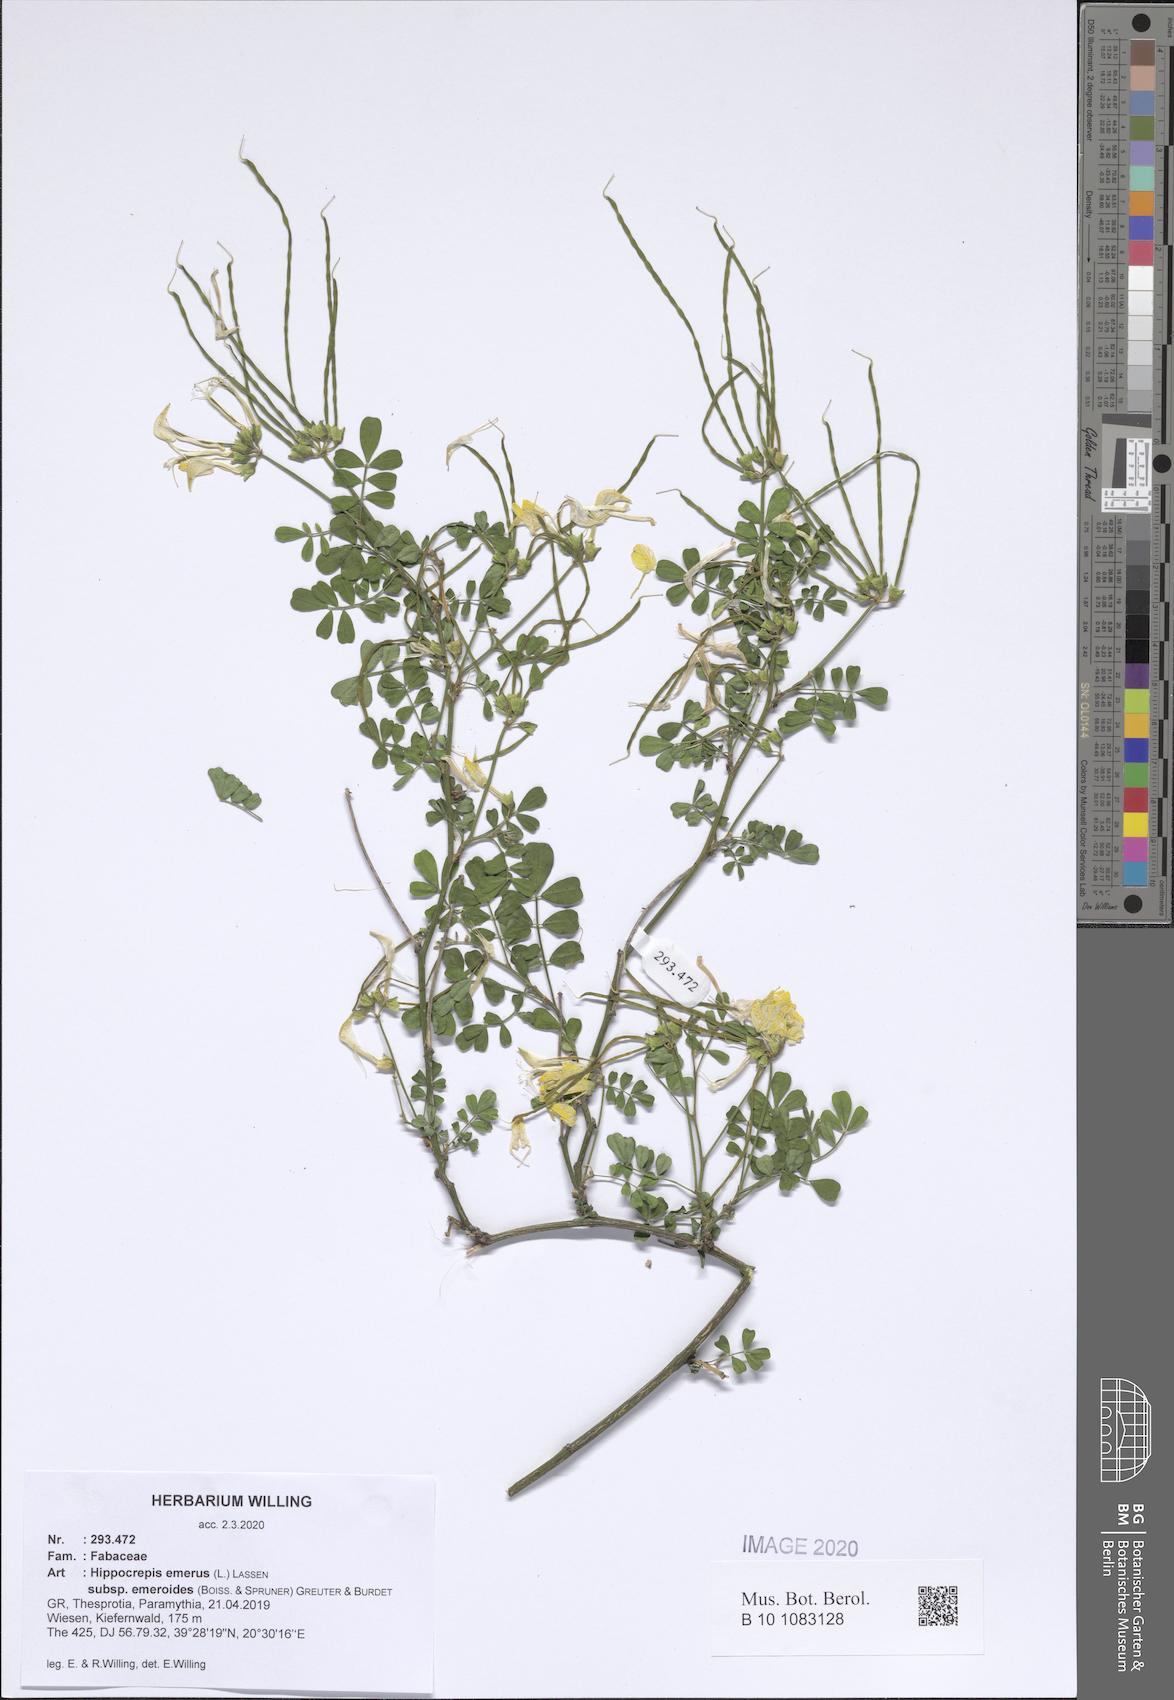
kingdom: Plantae
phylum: Tracheophyta
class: Magnoliopsida
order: Fabales
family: Fabaceae
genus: Hippocrepis
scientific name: Hippocrepis emerus
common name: Scorpion senna
